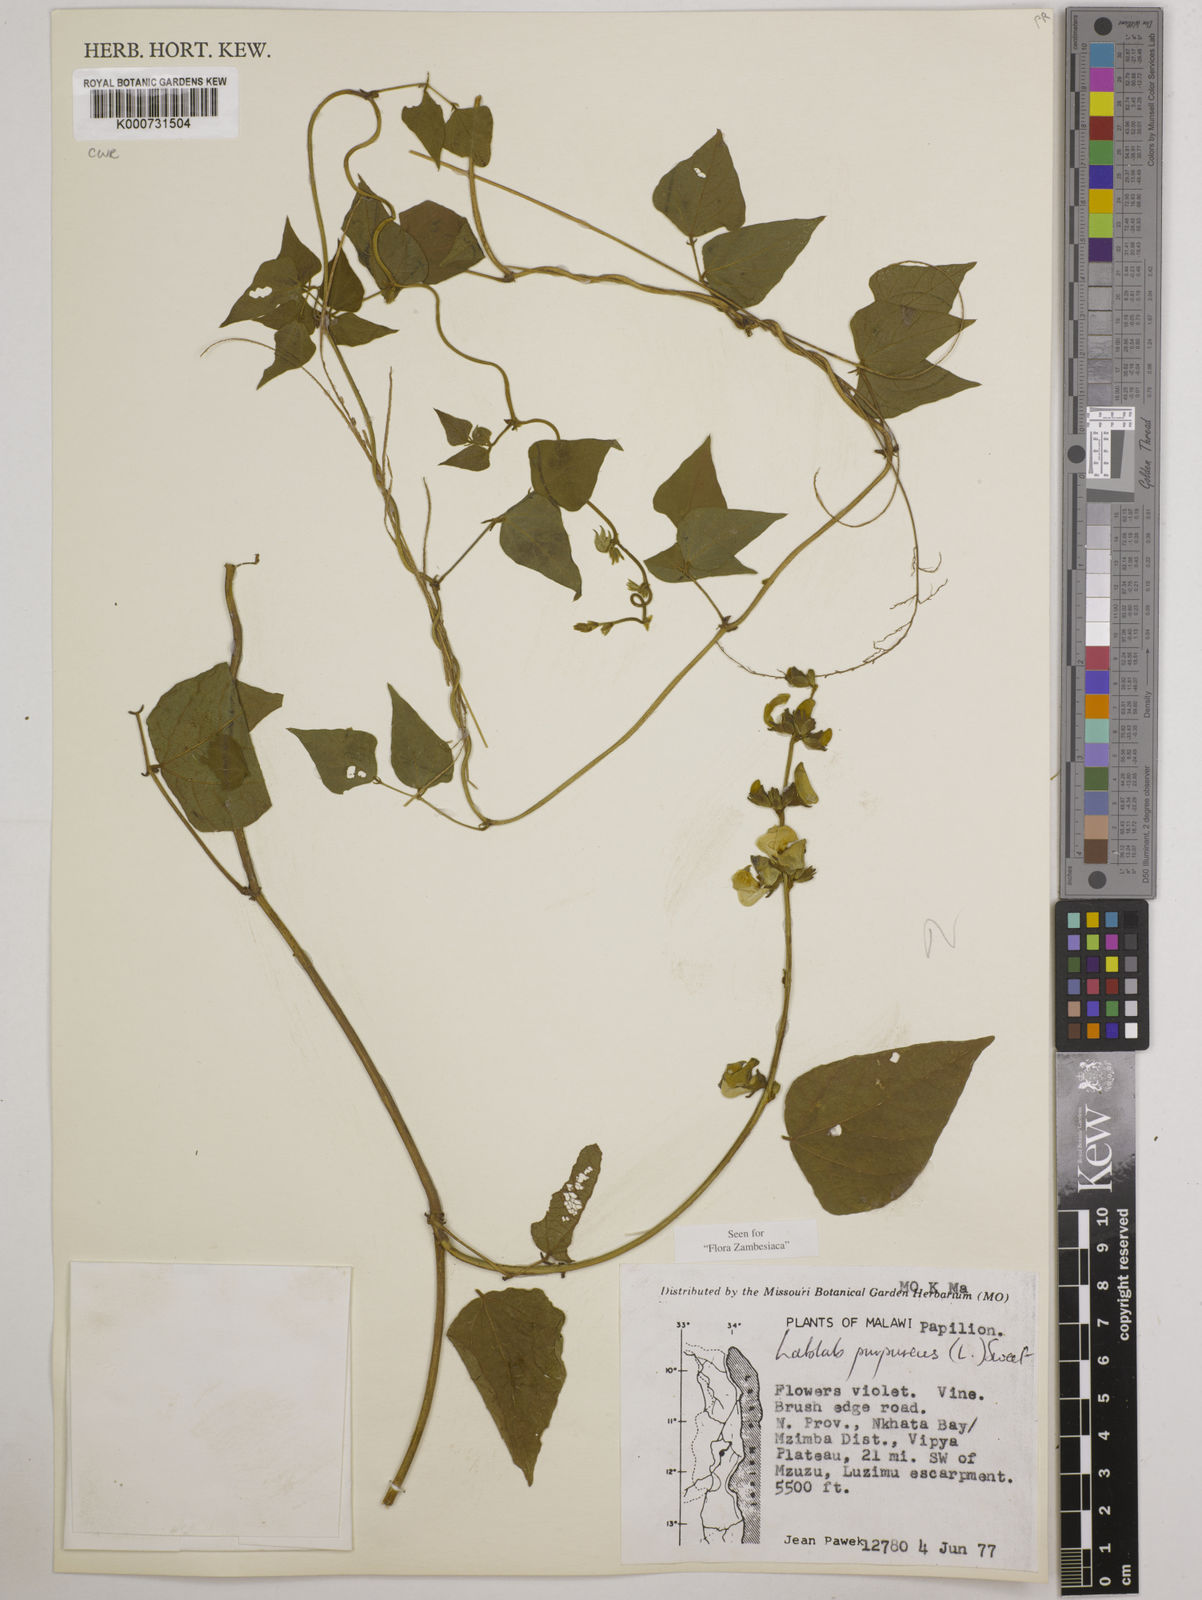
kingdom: Plantae
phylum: Tracheophyta
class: Magnoliopsida
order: Fabales
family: Fabaceae
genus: Lablab
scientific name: Lablab purpureus
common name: Lablab-bean
